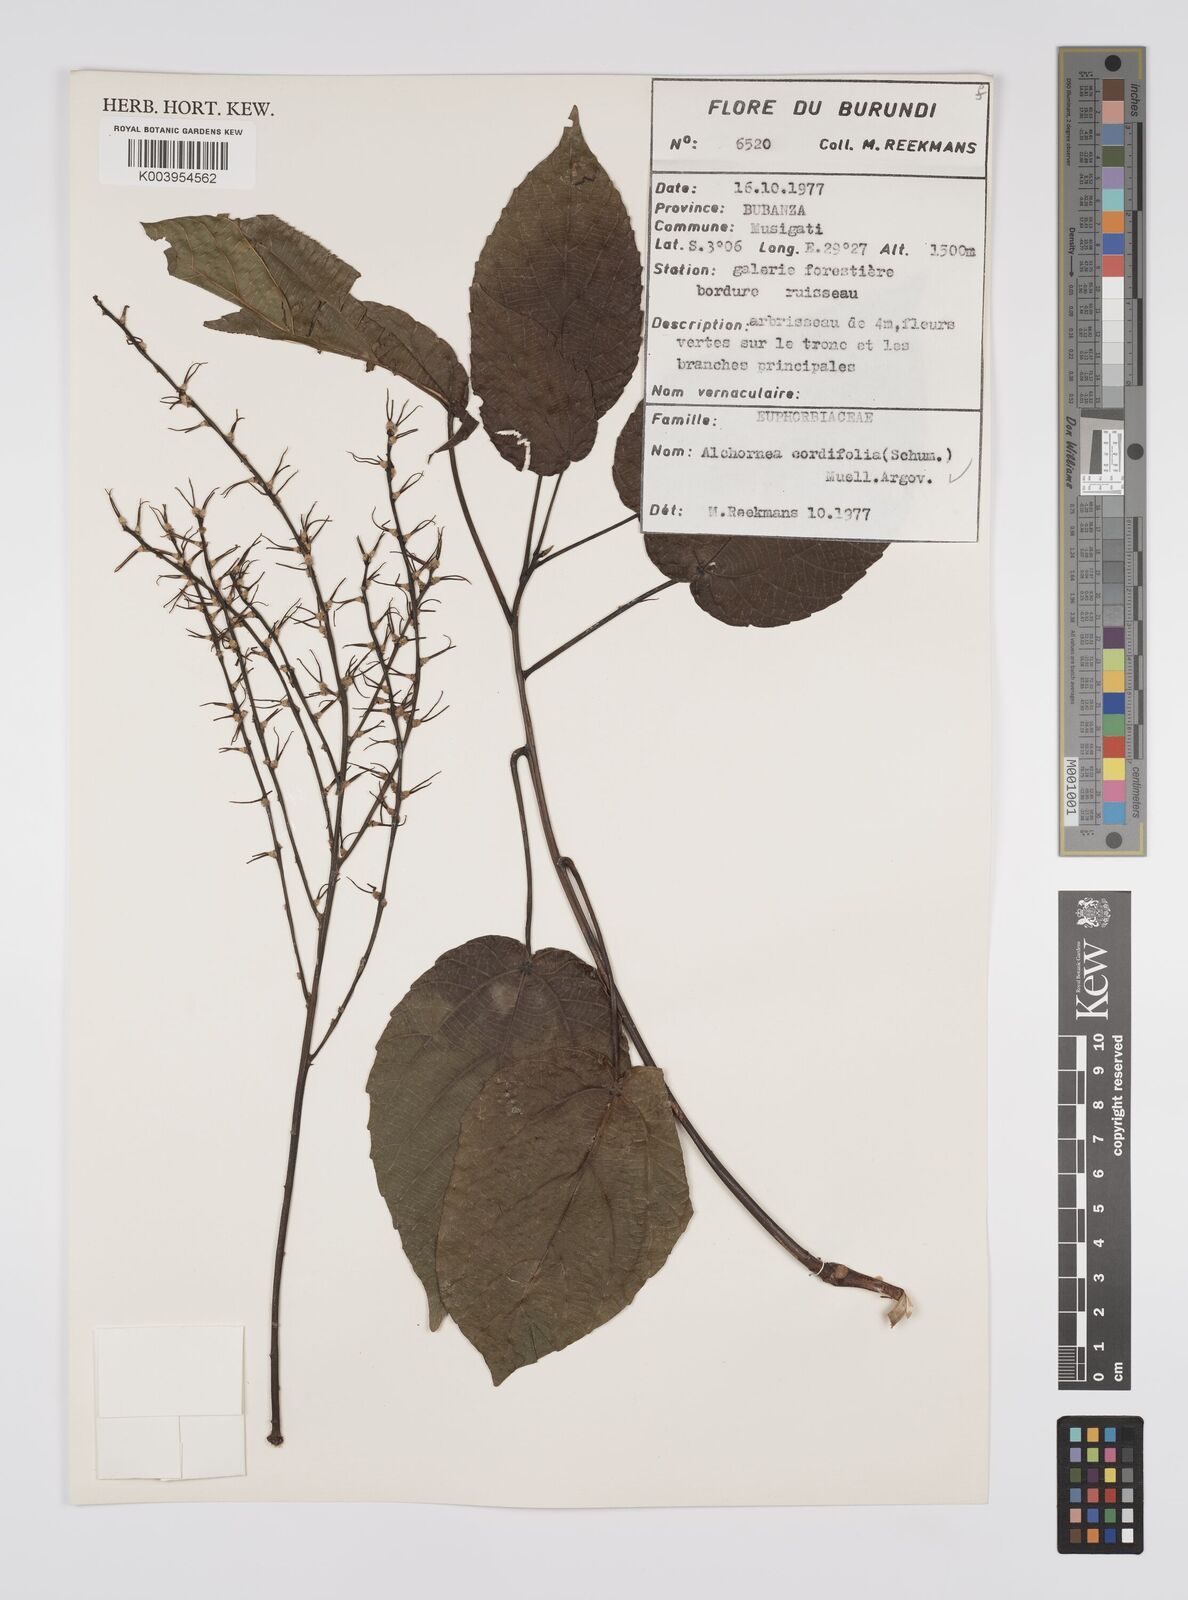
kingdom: Plantae
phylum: Tracheophyta
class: Magnoliopsida
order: Malpighiales
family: Euphorbiaceae
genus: Alchornea
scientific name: Alchornea cordifolia
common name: Christmasbush
